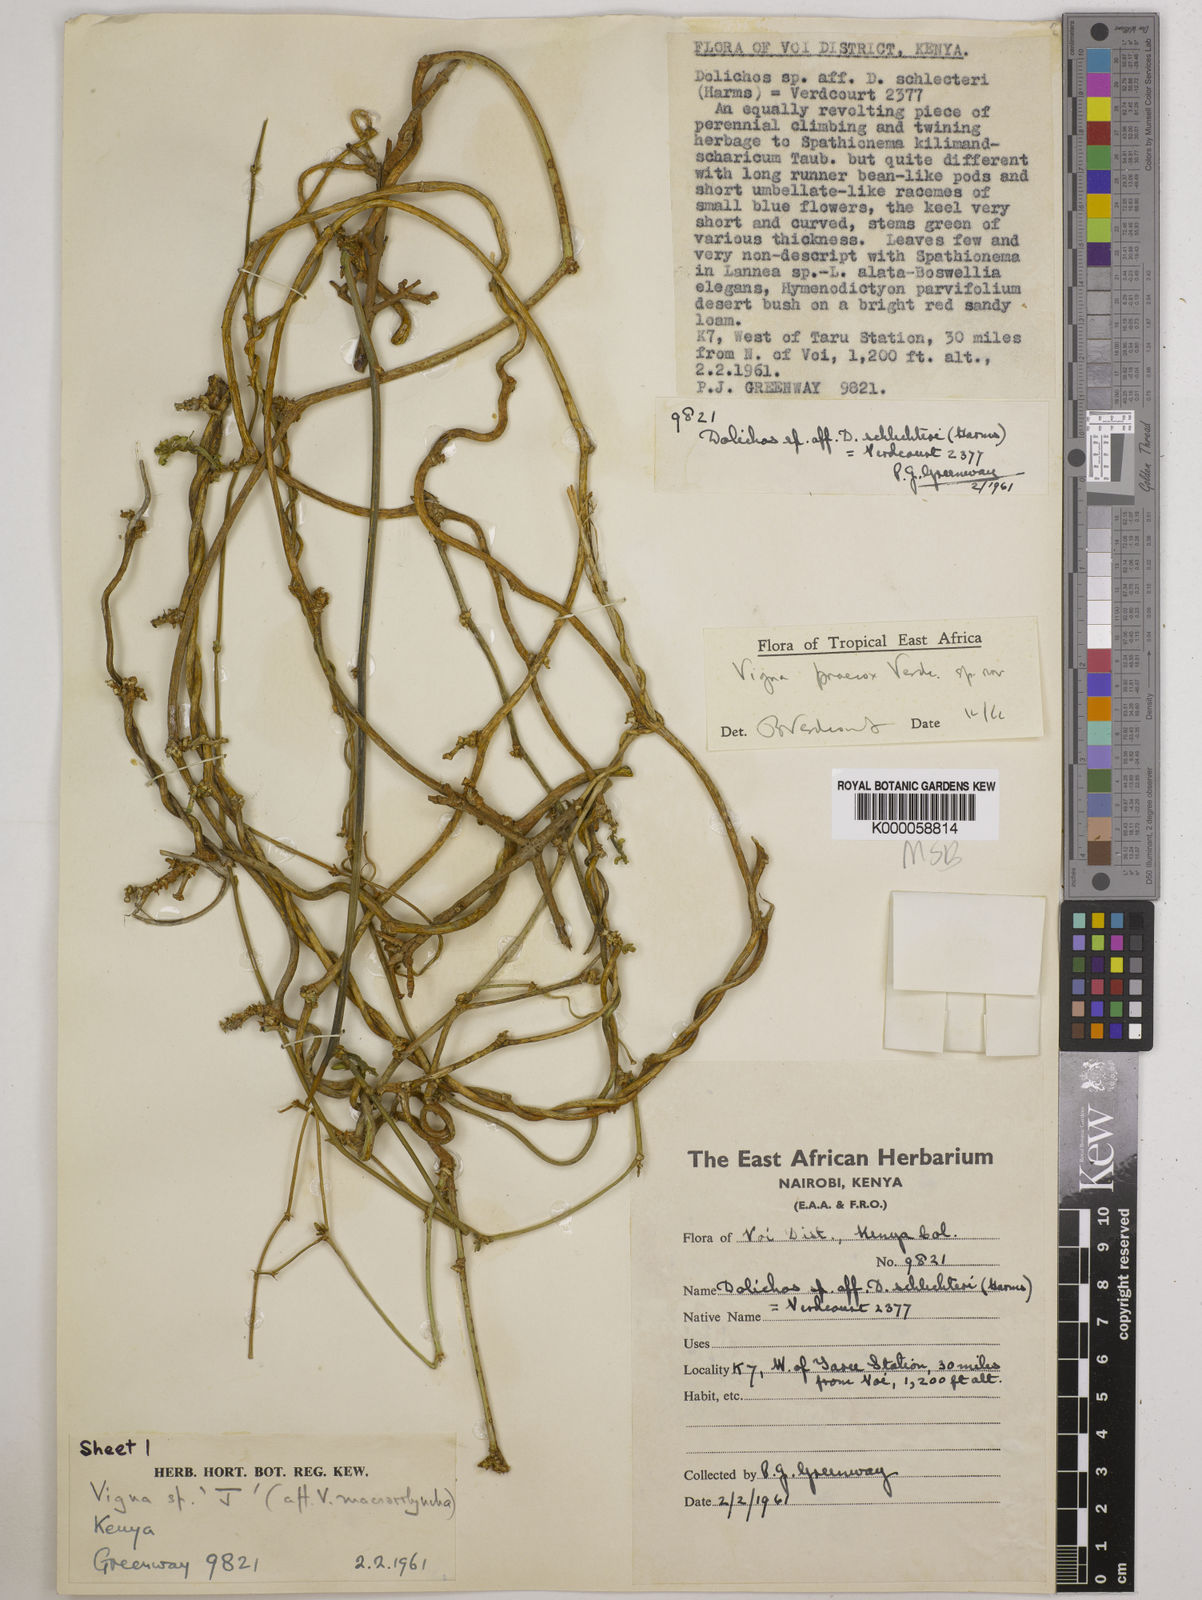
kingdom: Plantae
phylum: Tracheophyta
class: Magnoliopsida
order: Fabales
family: Fabaceae
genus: Wajira
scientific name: Wajira praecox
